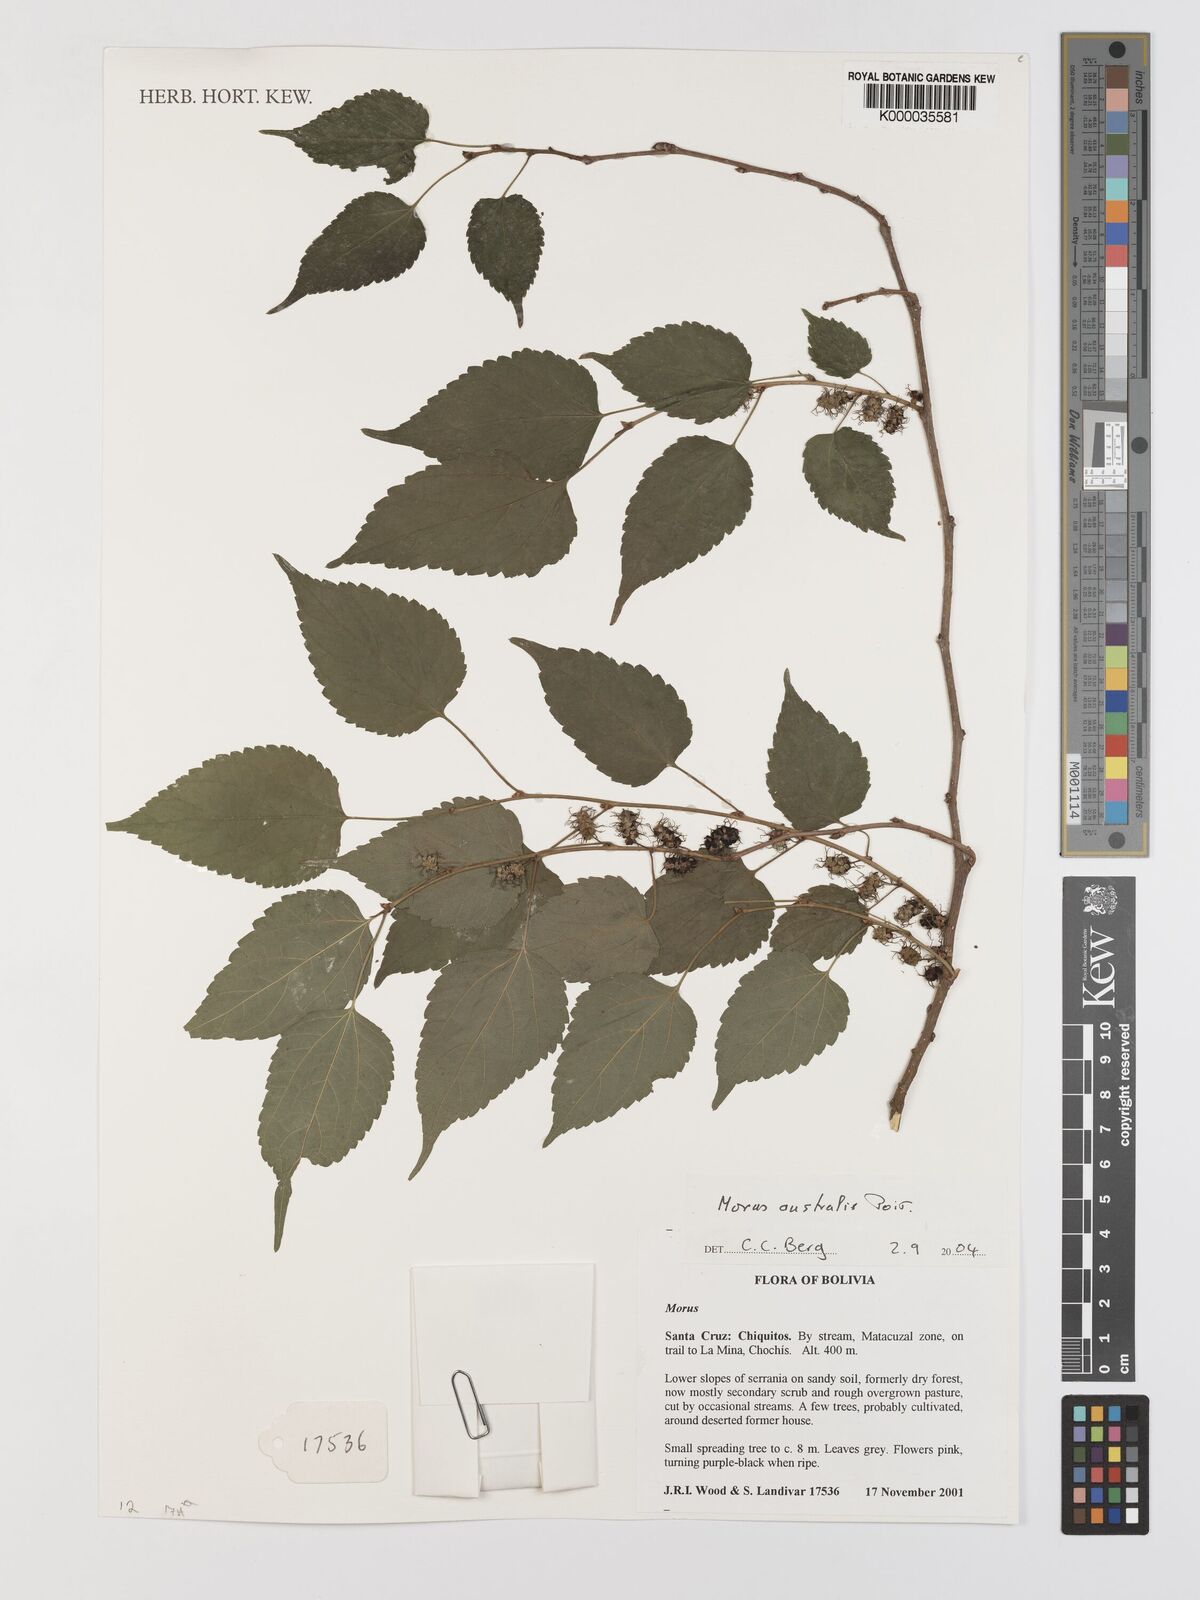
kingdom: Plantae
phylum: Tracheophyta
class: Magnoliopsida
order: Rosales
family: Moraceae
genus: Broussonetia
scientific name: Broussonetia papyrifera
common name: Paper mulberry
